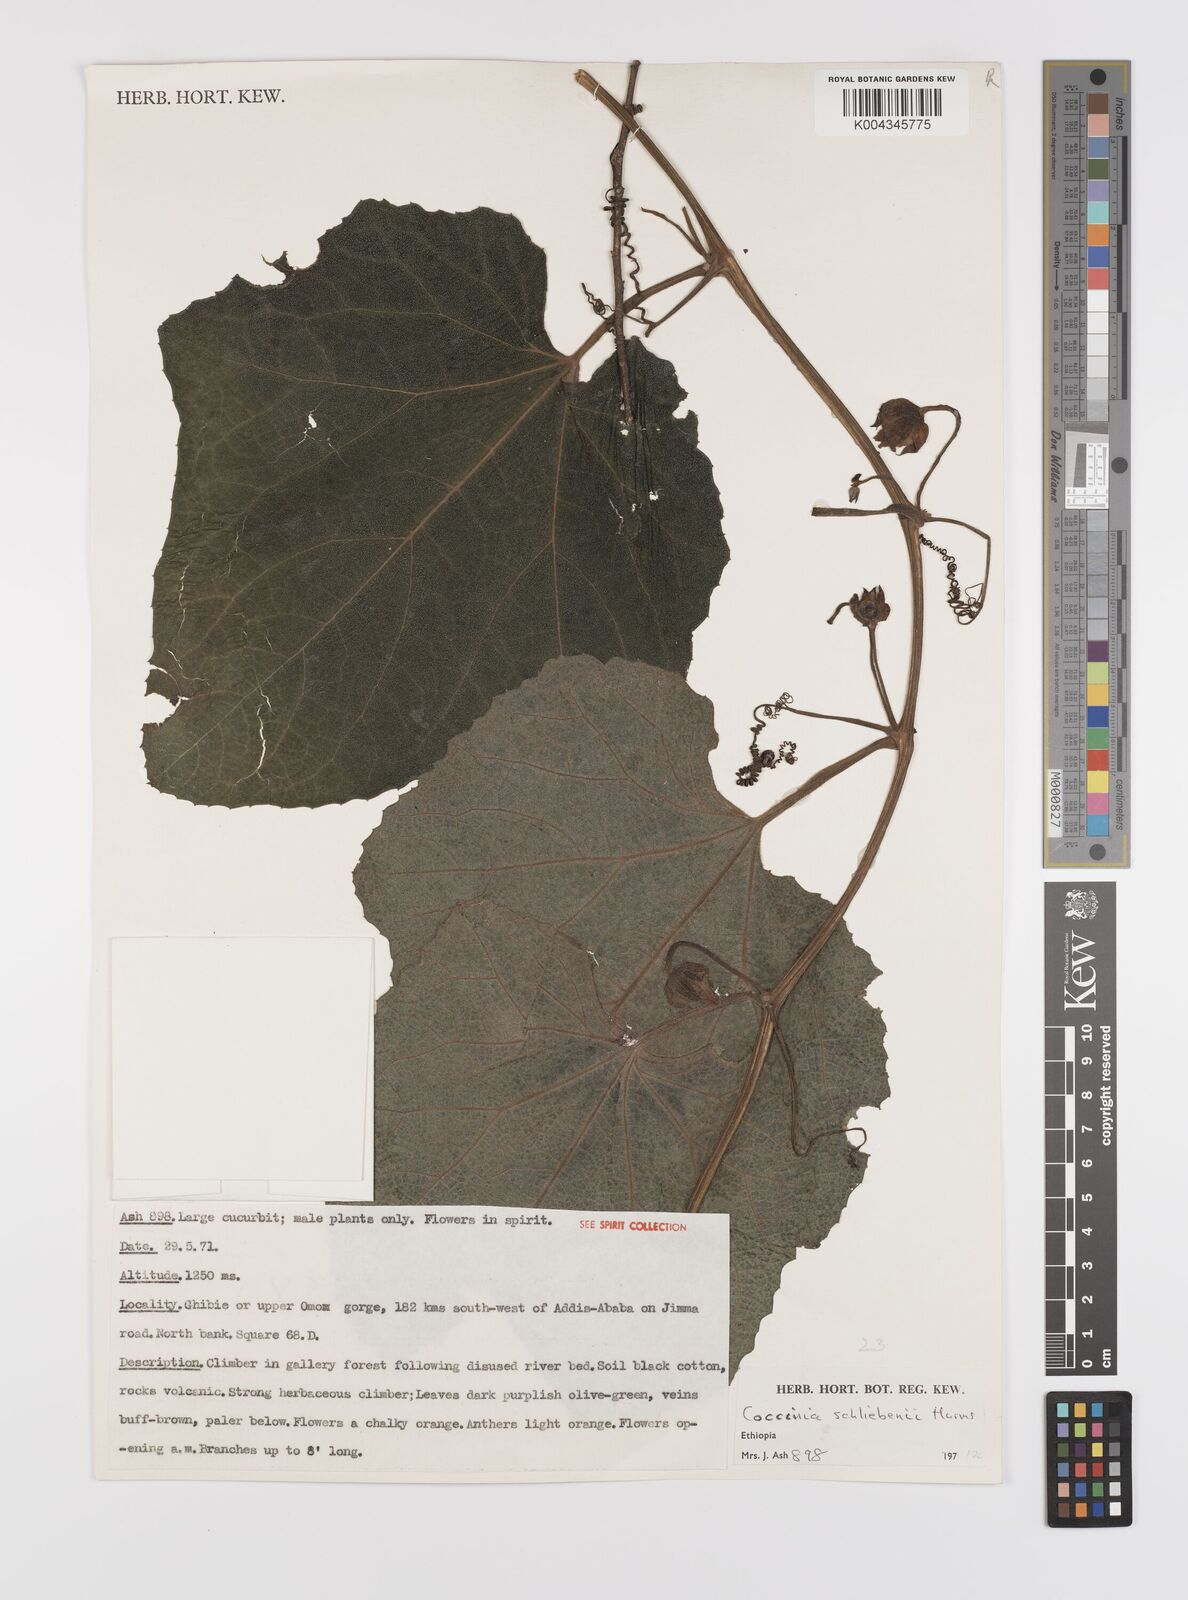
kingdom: Plantae
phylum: Tracheophyta
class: Magnoliopsida
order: Cucurbitales
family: Cucurbitaceae
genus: Coccinia
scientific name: Coccinia schliebenii
